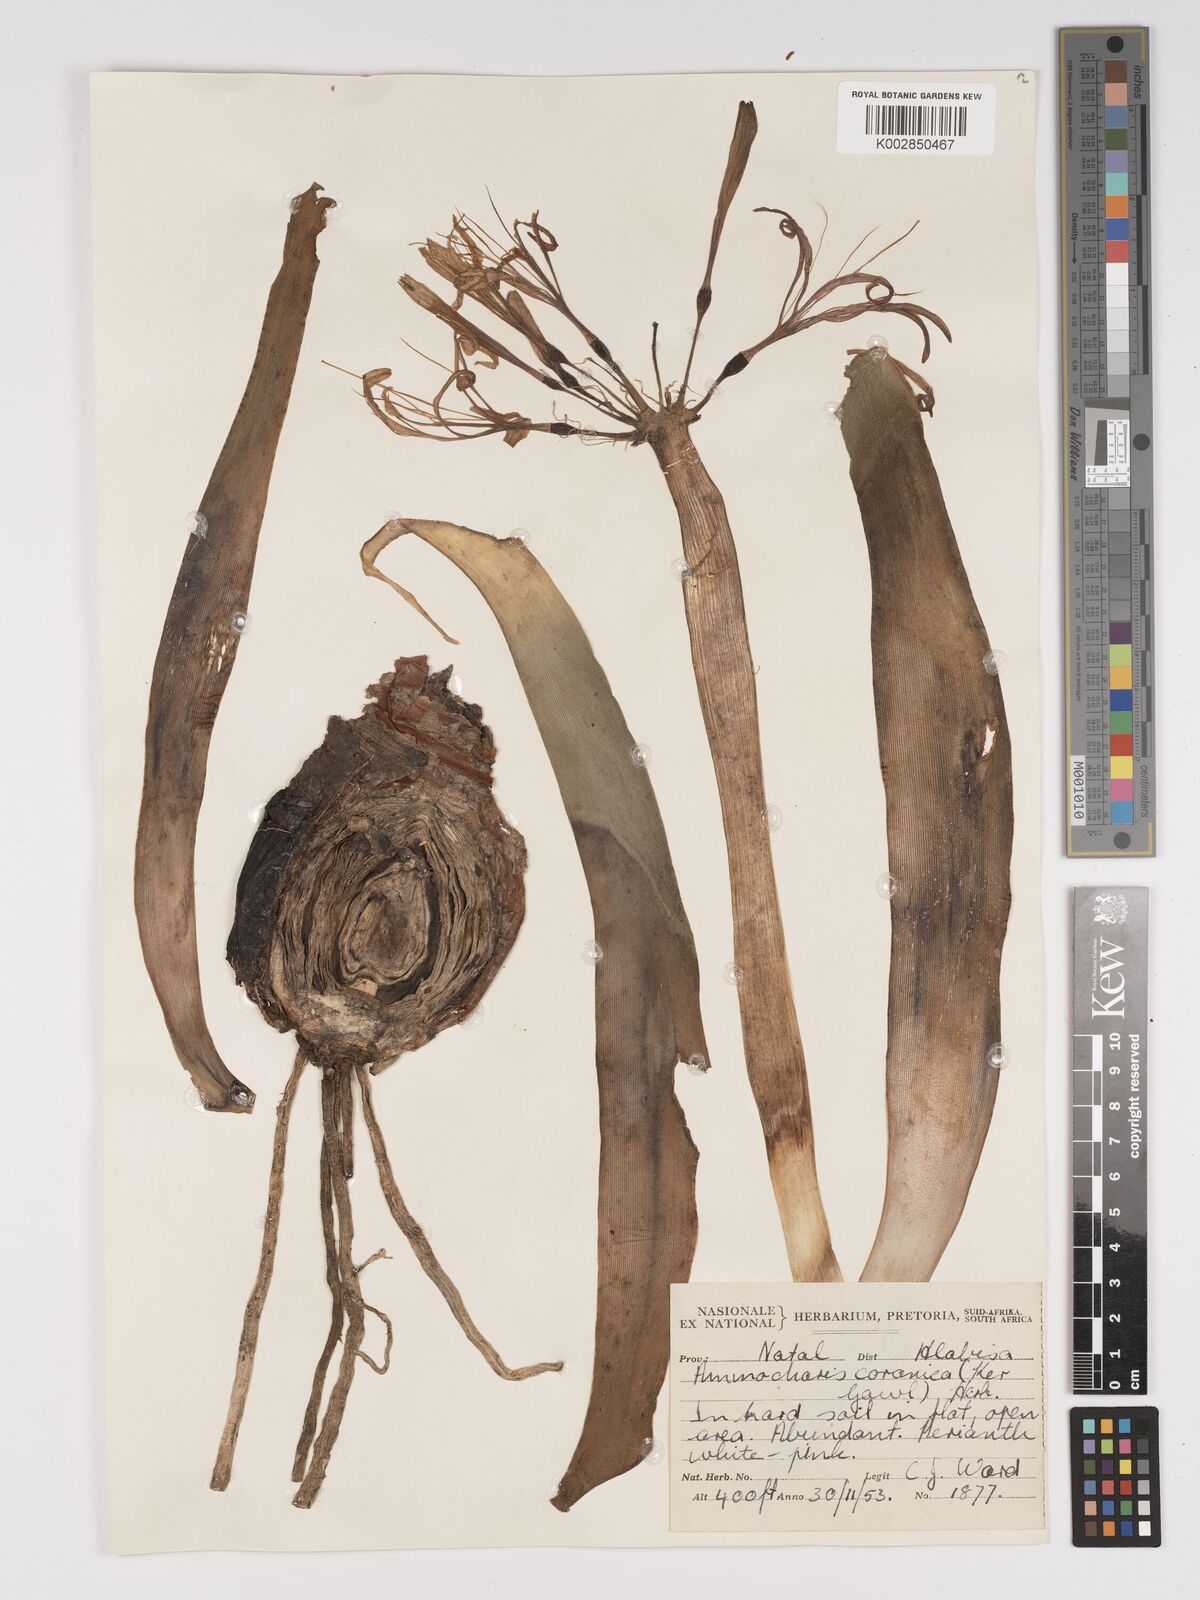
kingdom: Plantae
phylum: Tracheophyta
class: Liliopsida
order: Asparagales
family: Amaryllidaceae
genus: Ammocharis
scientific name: Ammocharis coranica
